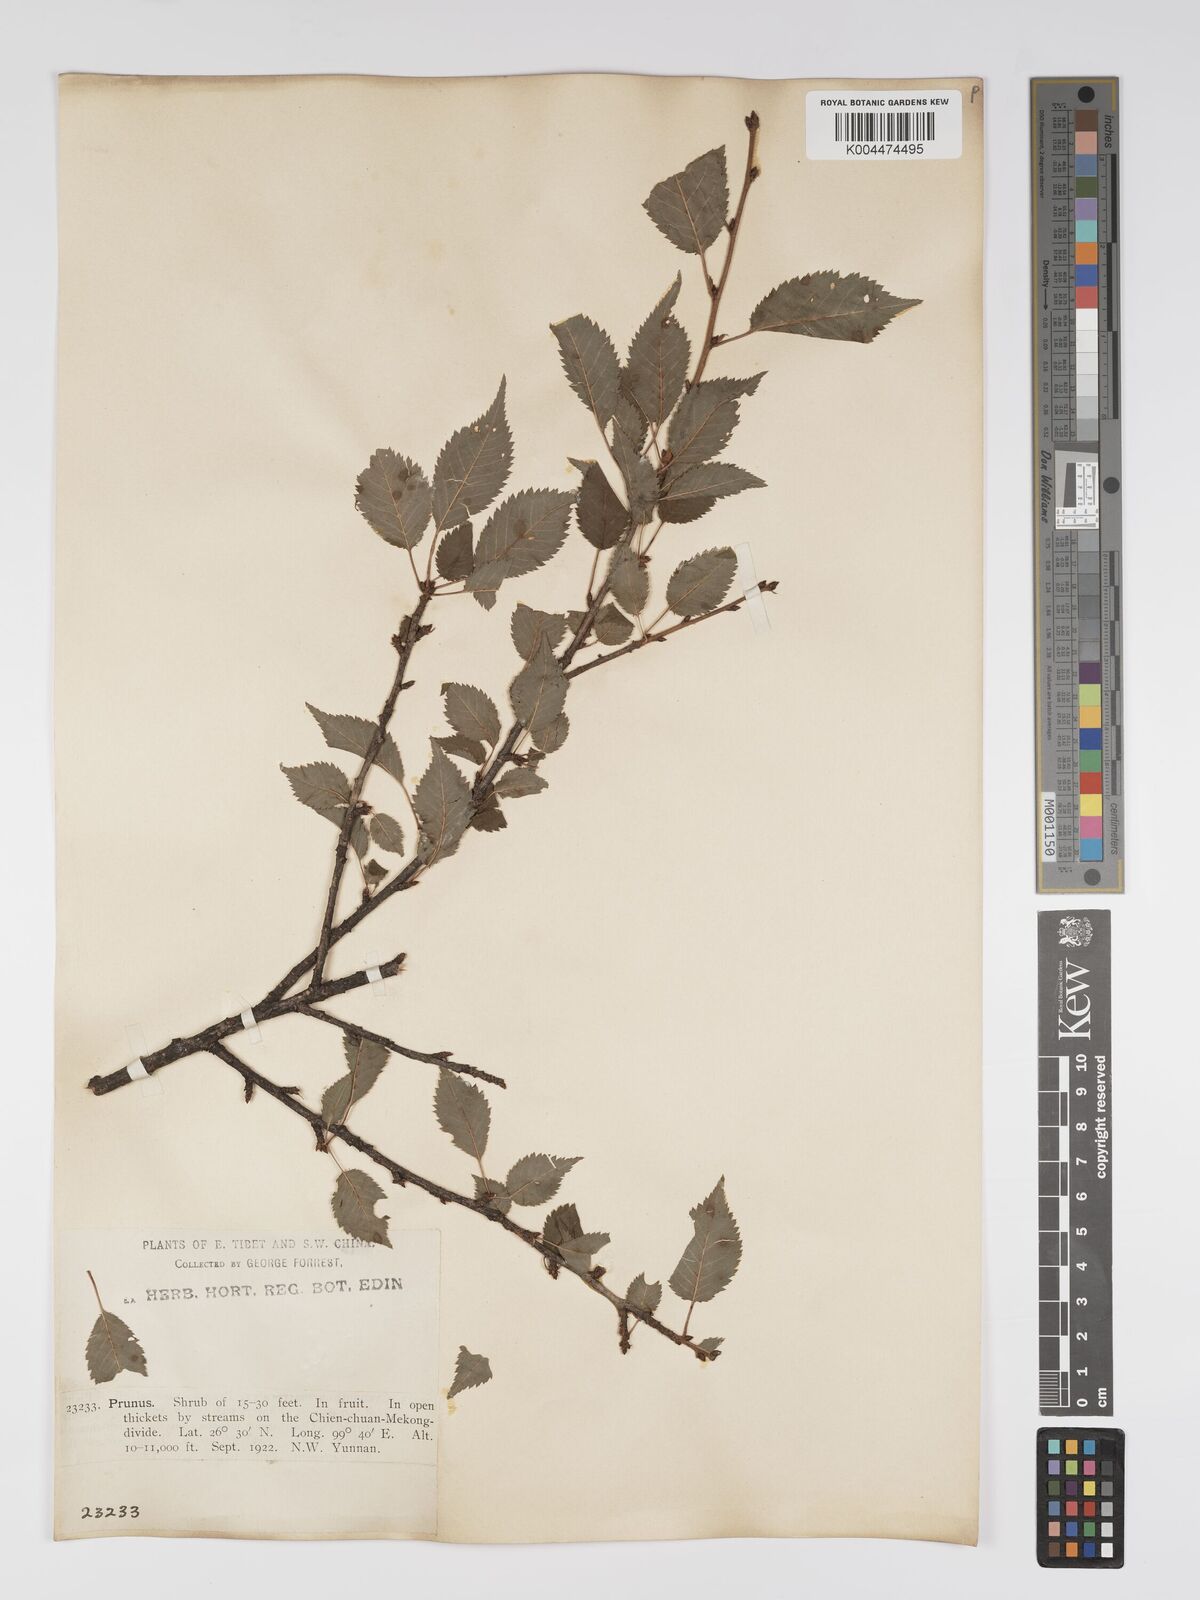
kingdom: Plantae
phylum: Tracheophyta
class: Magnoliopsida
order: Rosales
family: Rosaceae
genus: Prunus
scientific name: Prunus
